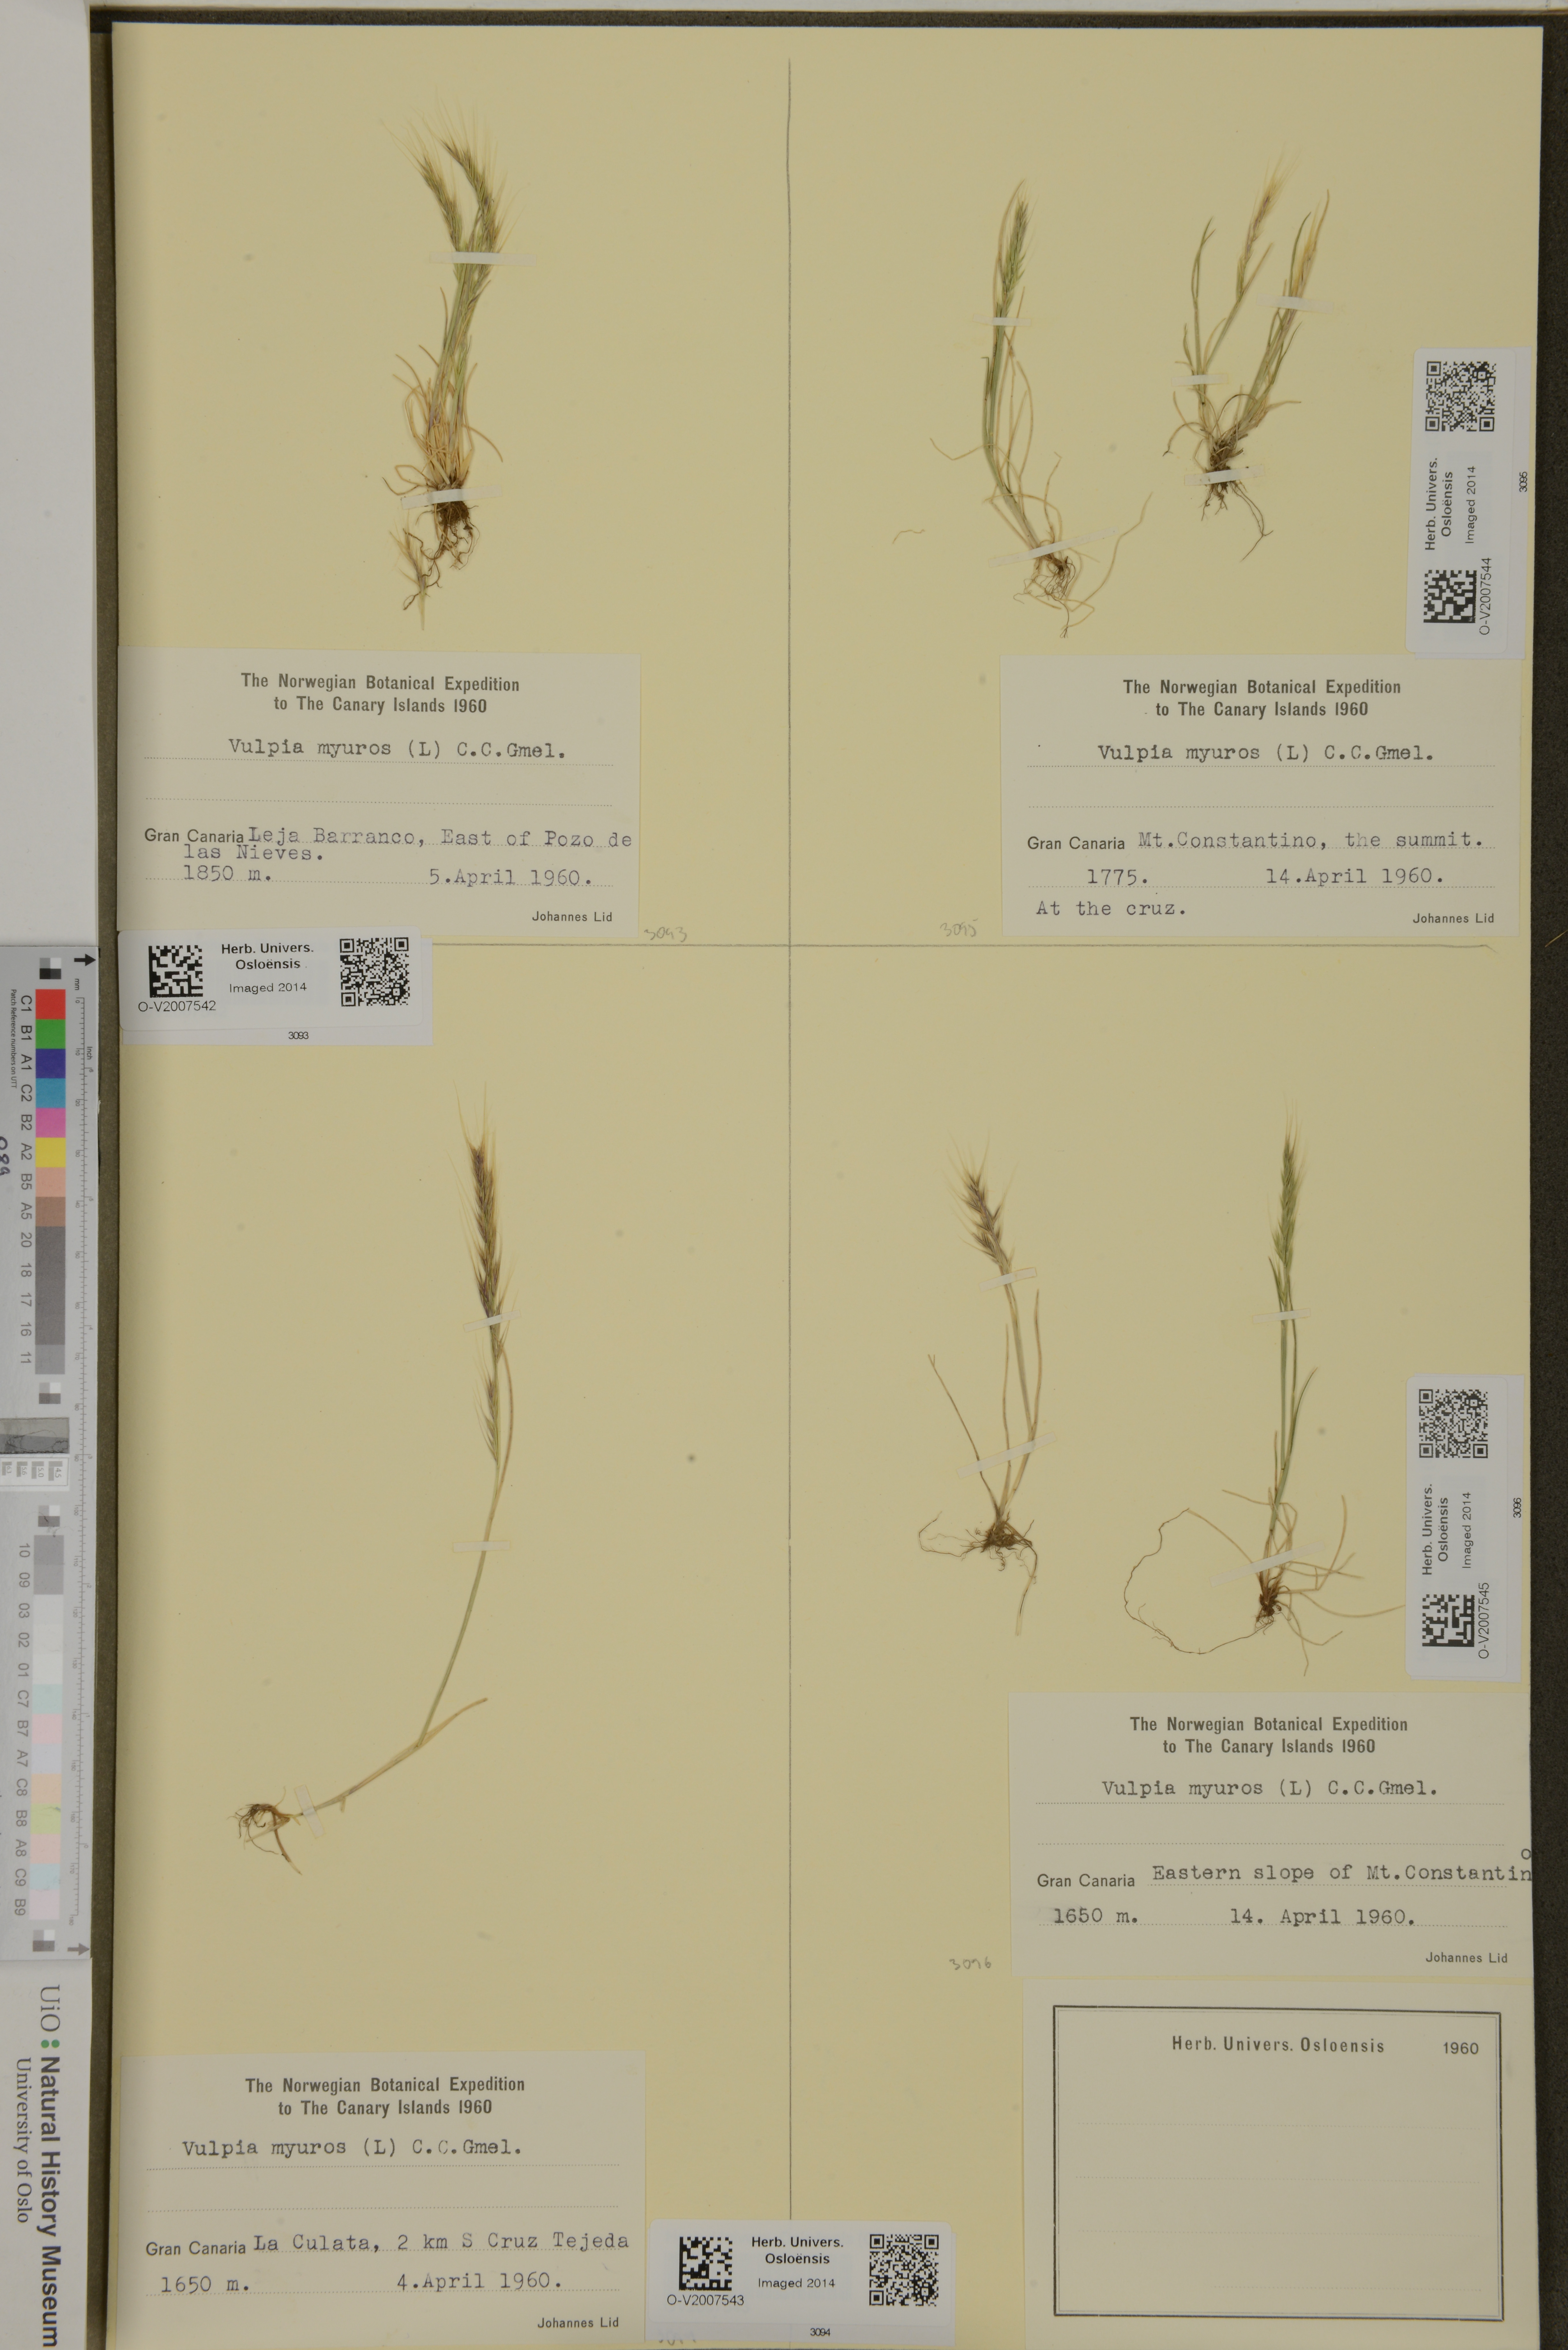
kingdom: Plantae
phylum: Tracheophyta
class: Liliopsida
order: Poales
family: Poaceae
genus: Festuca
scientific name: Festuca myuros
